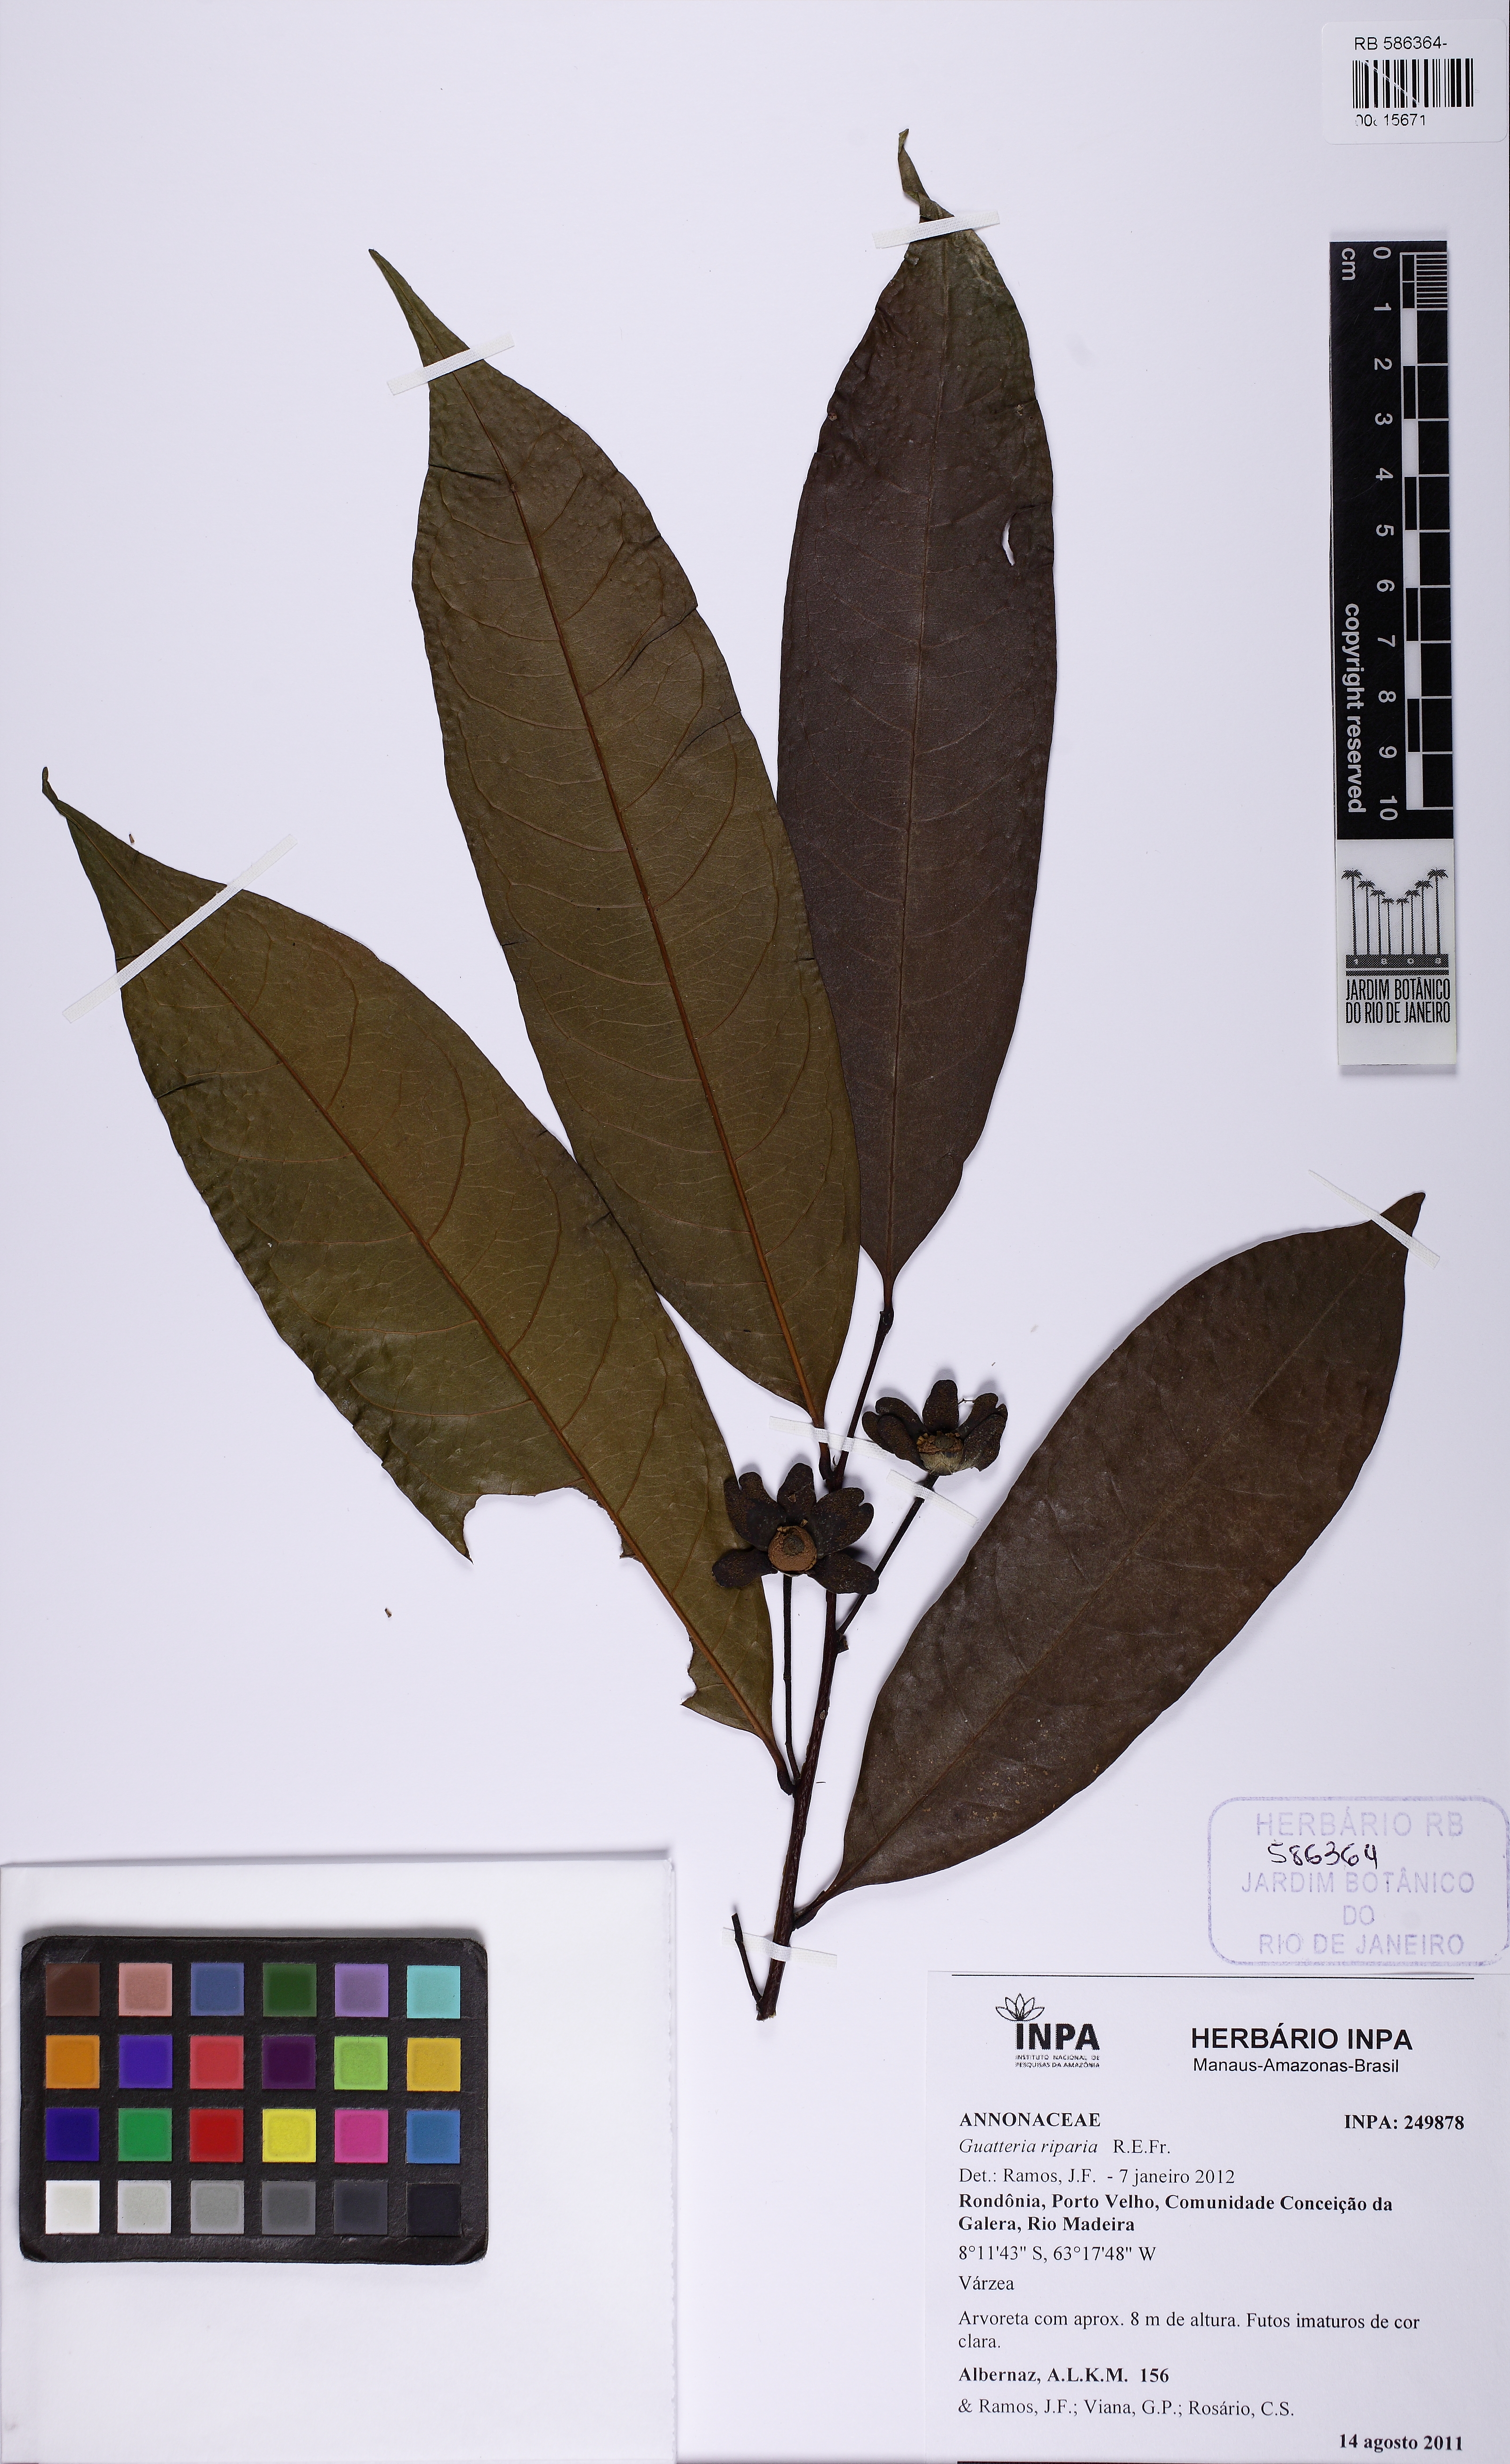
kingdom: Plantae
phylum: Tracheophyta
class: Magnoliopsida
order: Magnoliales
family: Annonaceae
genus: Guatteria
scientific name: Guatteria inundata
